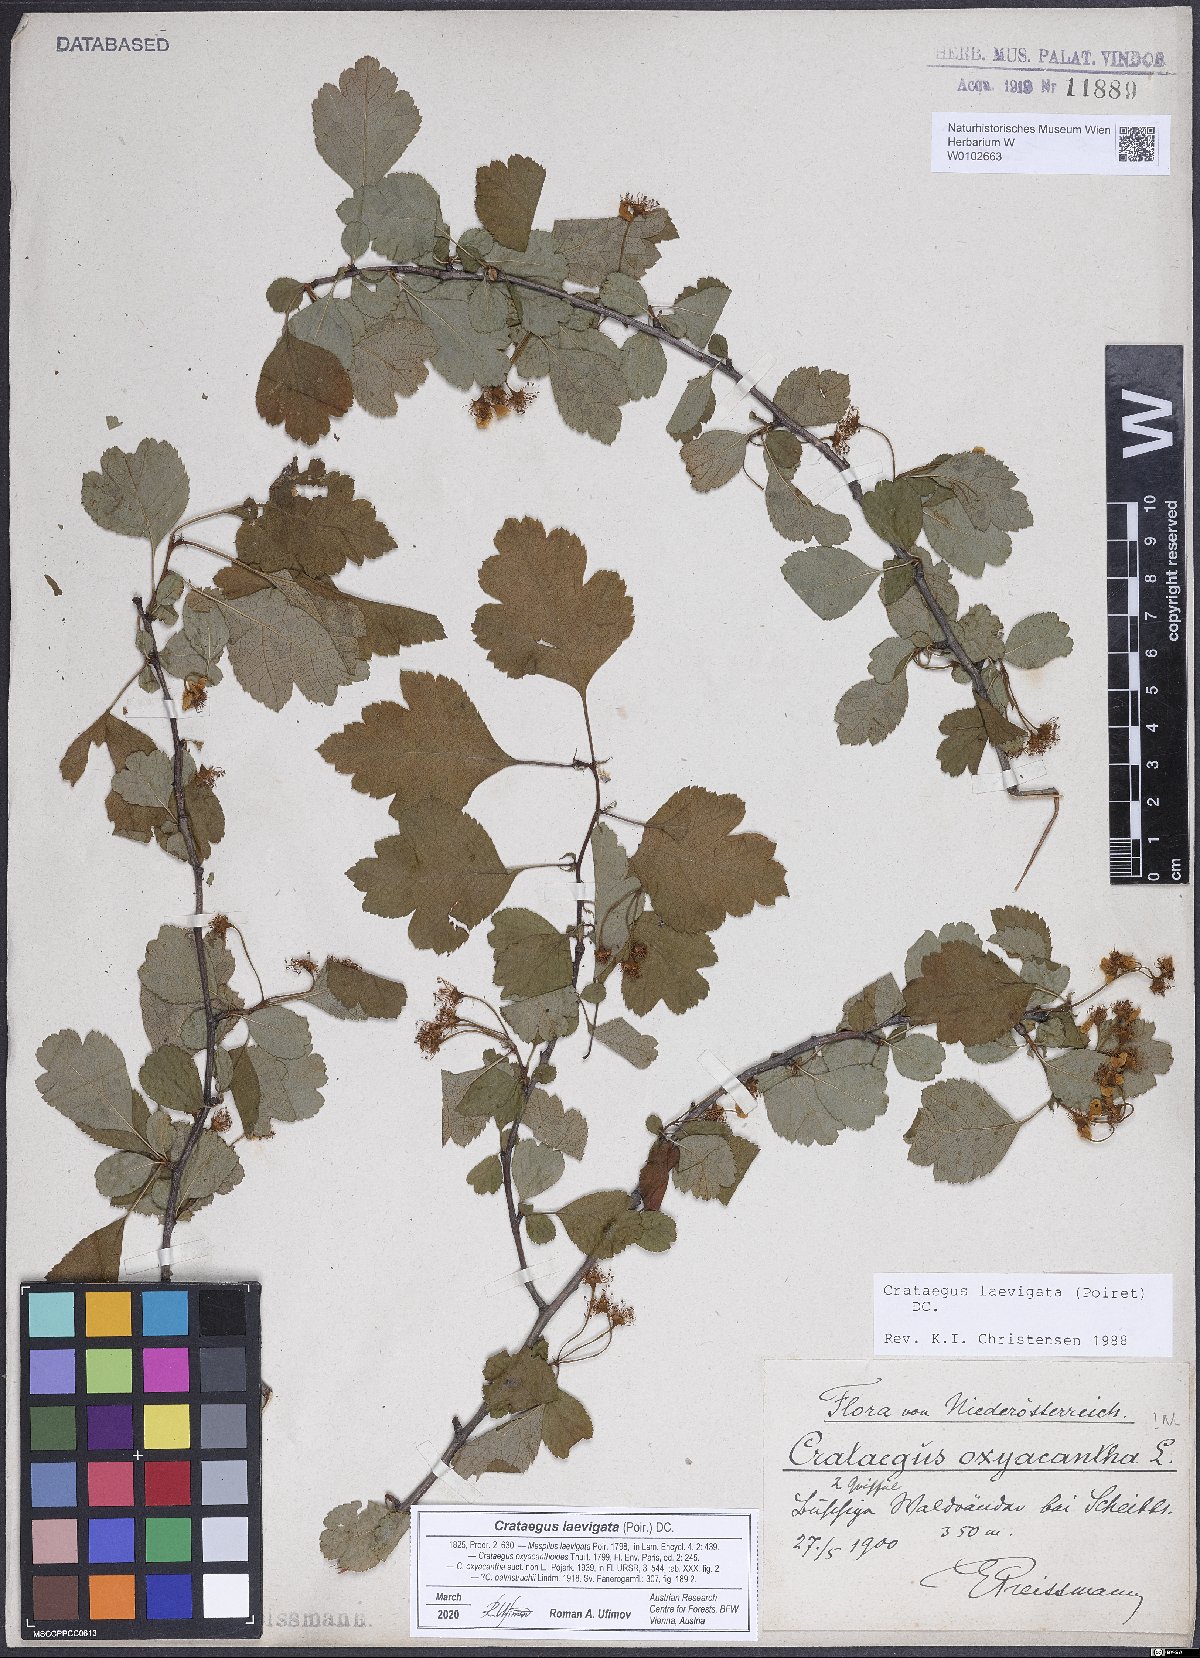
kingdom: Plantae
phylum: Tracheophyta
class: Magnoliopsida
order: Rosales
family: Rosaceae
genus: Crataegus
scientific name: Crataegus laevigata
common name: Midland hawthorn
